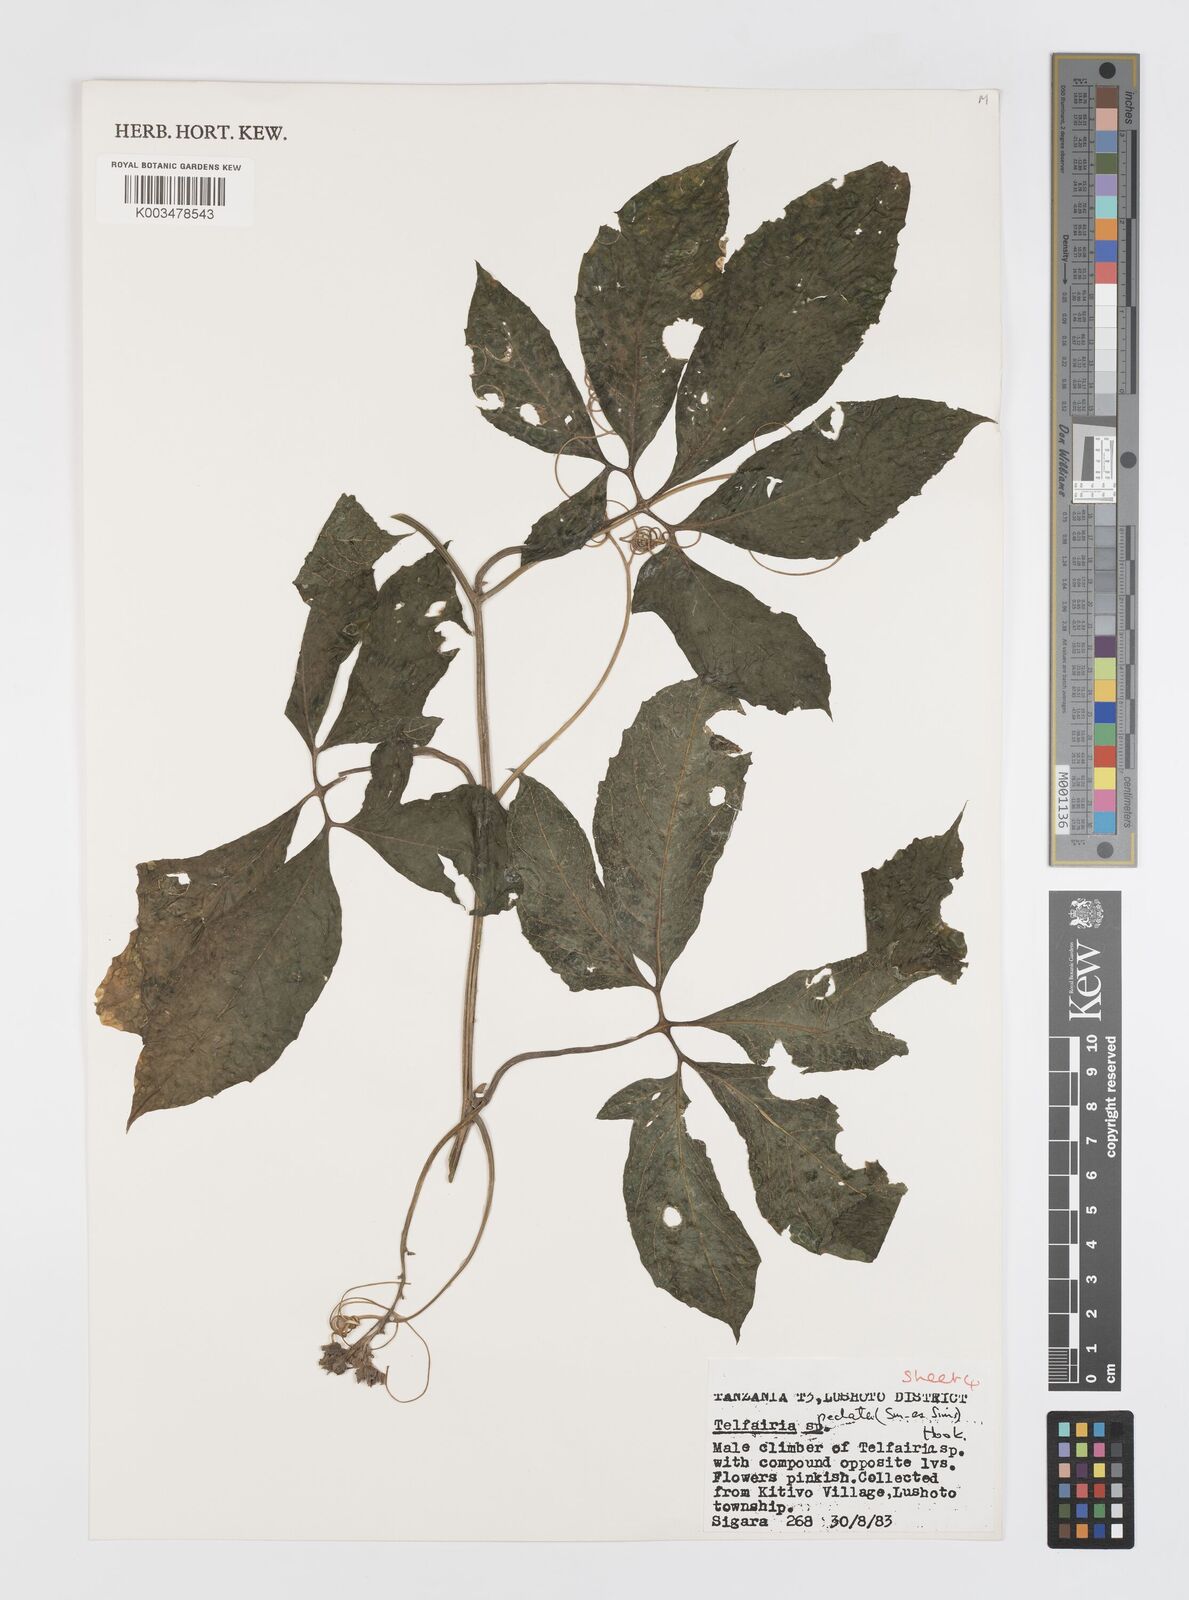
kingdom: Plantae
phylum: Tracheophyta
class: Magnoliopsida
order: Cucurbitales
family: Cucurbitaceae
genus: Telfairia
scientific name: Telfairia pedata
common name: Zanzibar oilvine
